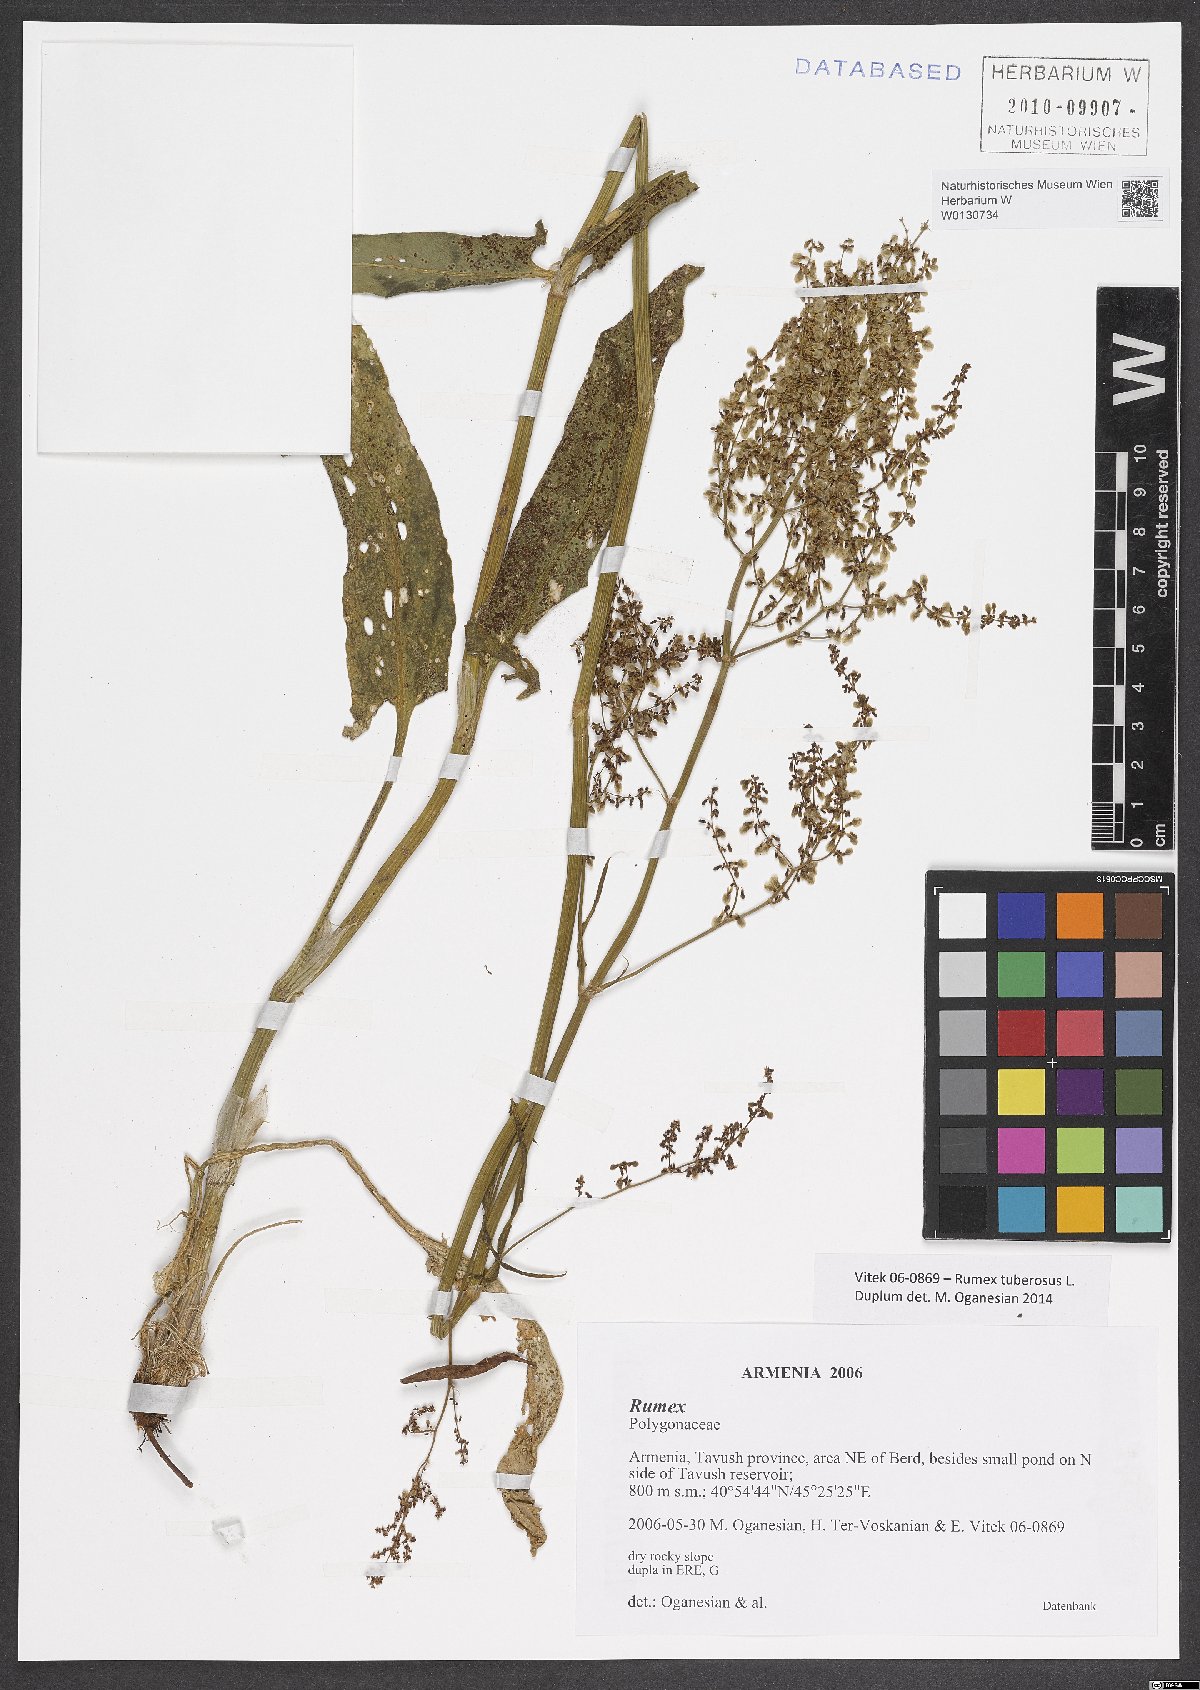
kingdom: Plantae
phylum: Tracheophyta
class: Magnoliopsida
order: Caryophyllales
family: Polygonaceae
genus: Rumex
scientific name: Rumex tuberosus
